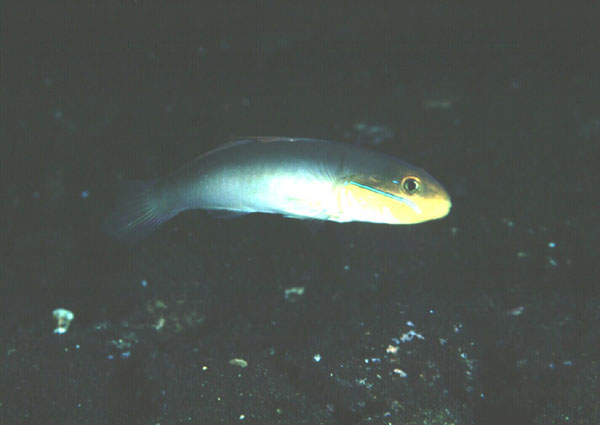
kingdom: Animalia
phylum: Chordata
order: Perciformes
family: Gobiidae
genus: Valenciennea
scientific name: Valenciennea strigata
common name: Blueband goby
